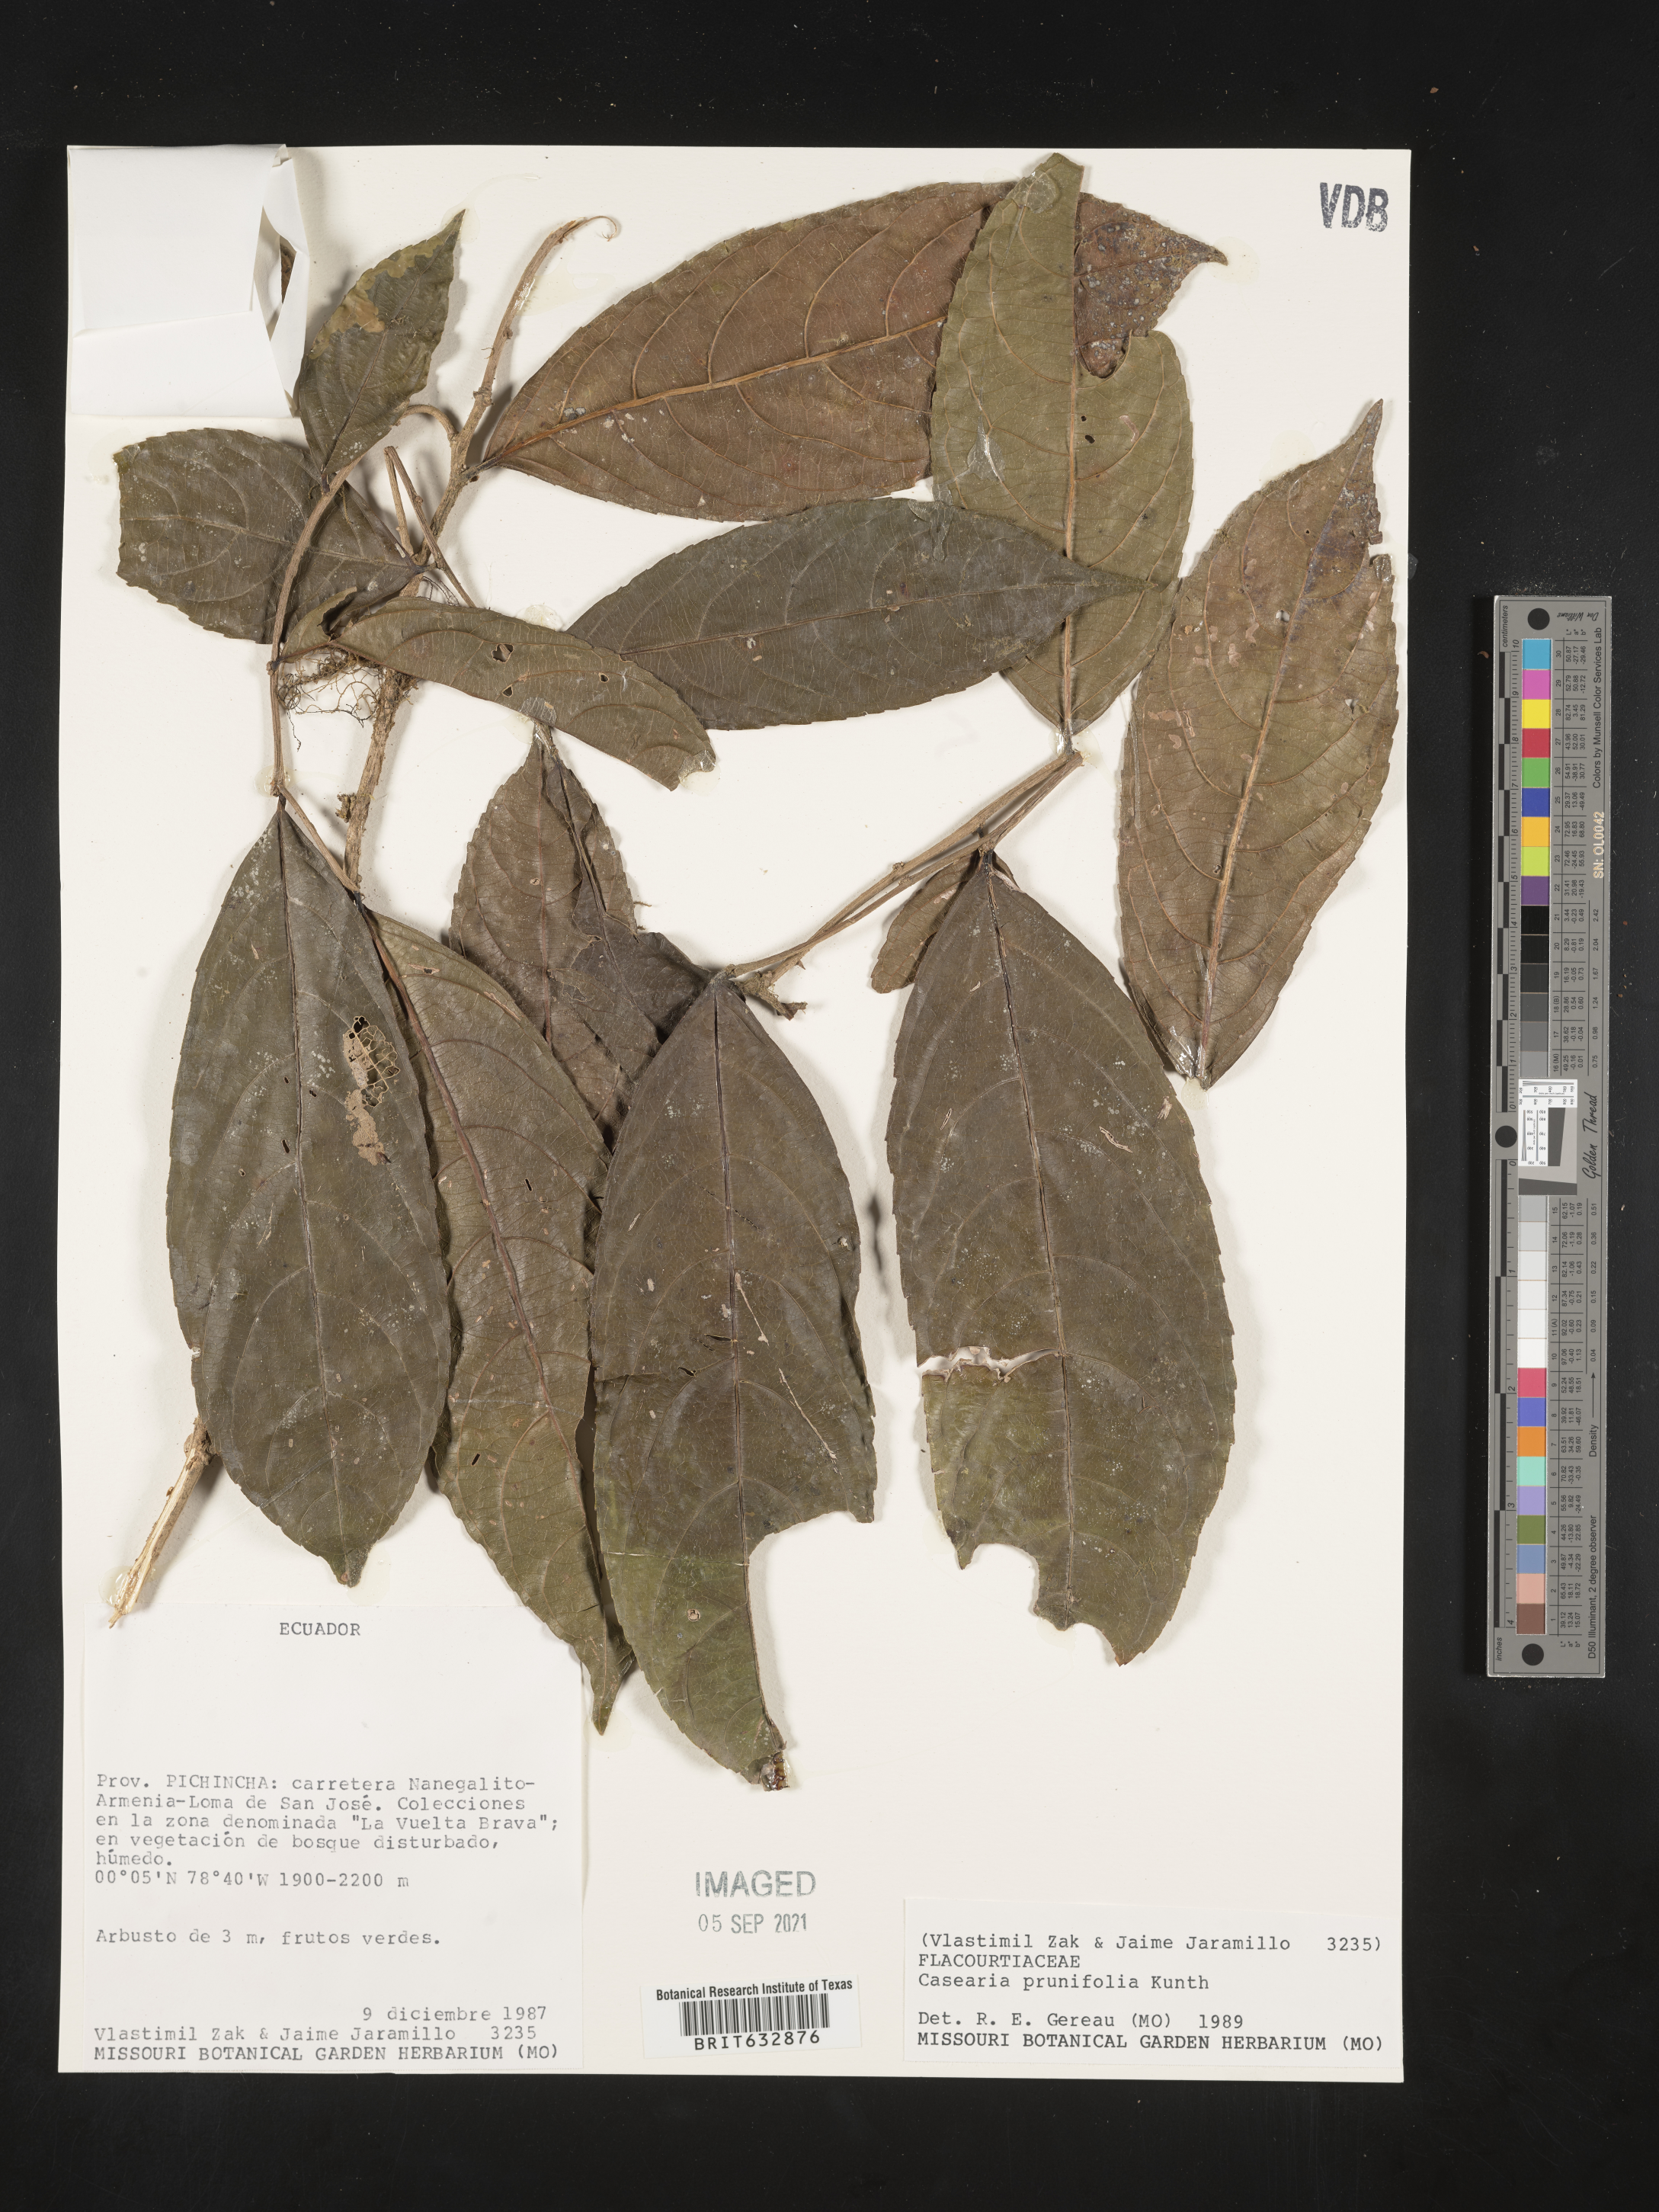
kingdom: Plantae
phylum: Tracheophyta
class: Magnoliopsida
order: Malpighiales
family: Salicaceae
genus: Casearia
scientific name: Casearia
